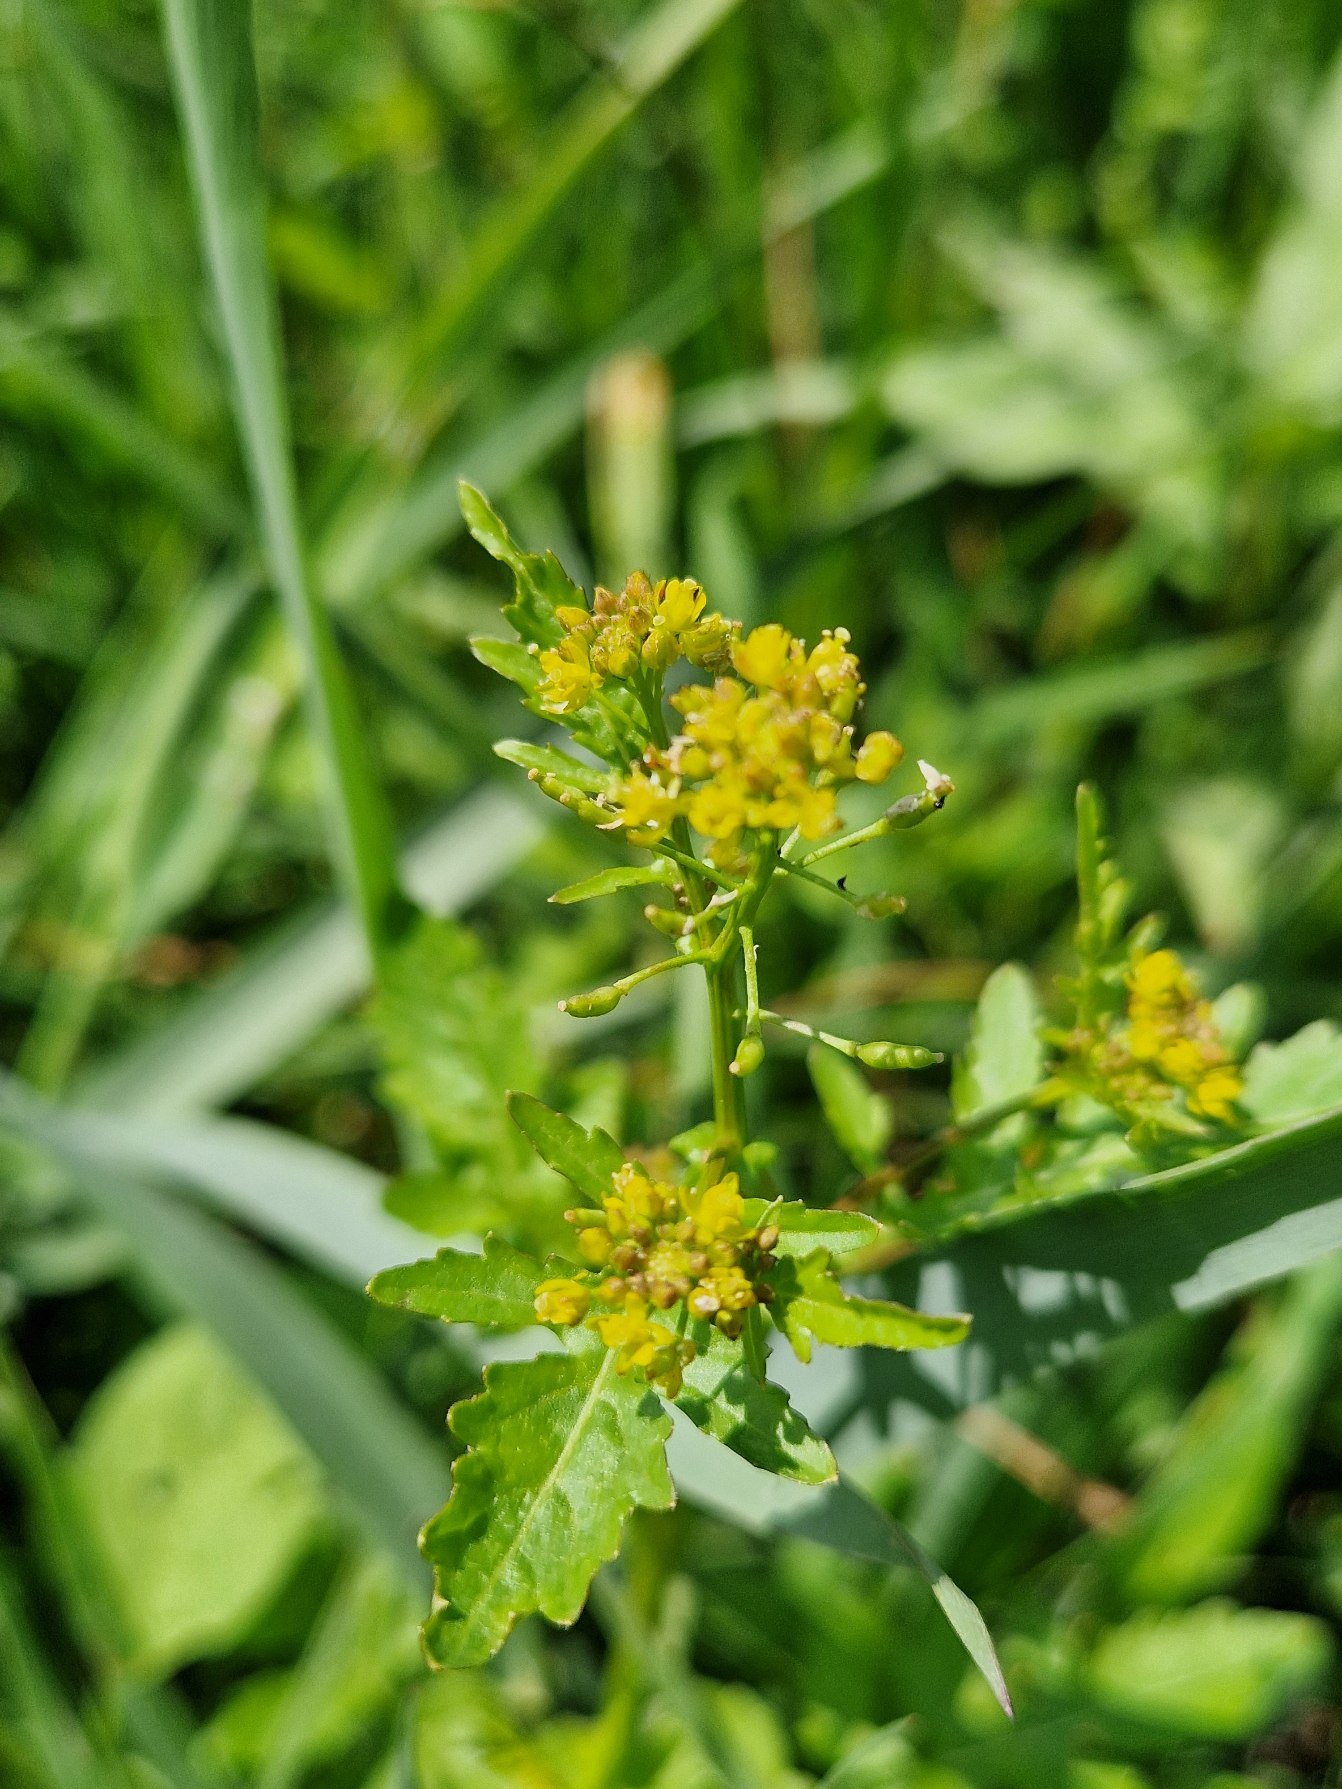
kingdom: Plantae
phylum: Tracheophyta
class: Magnoliopsida
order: Brassicales
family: Brassicaceae
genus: Rorippa
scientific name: Rorippa palustris
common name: Kær-guldkarse
